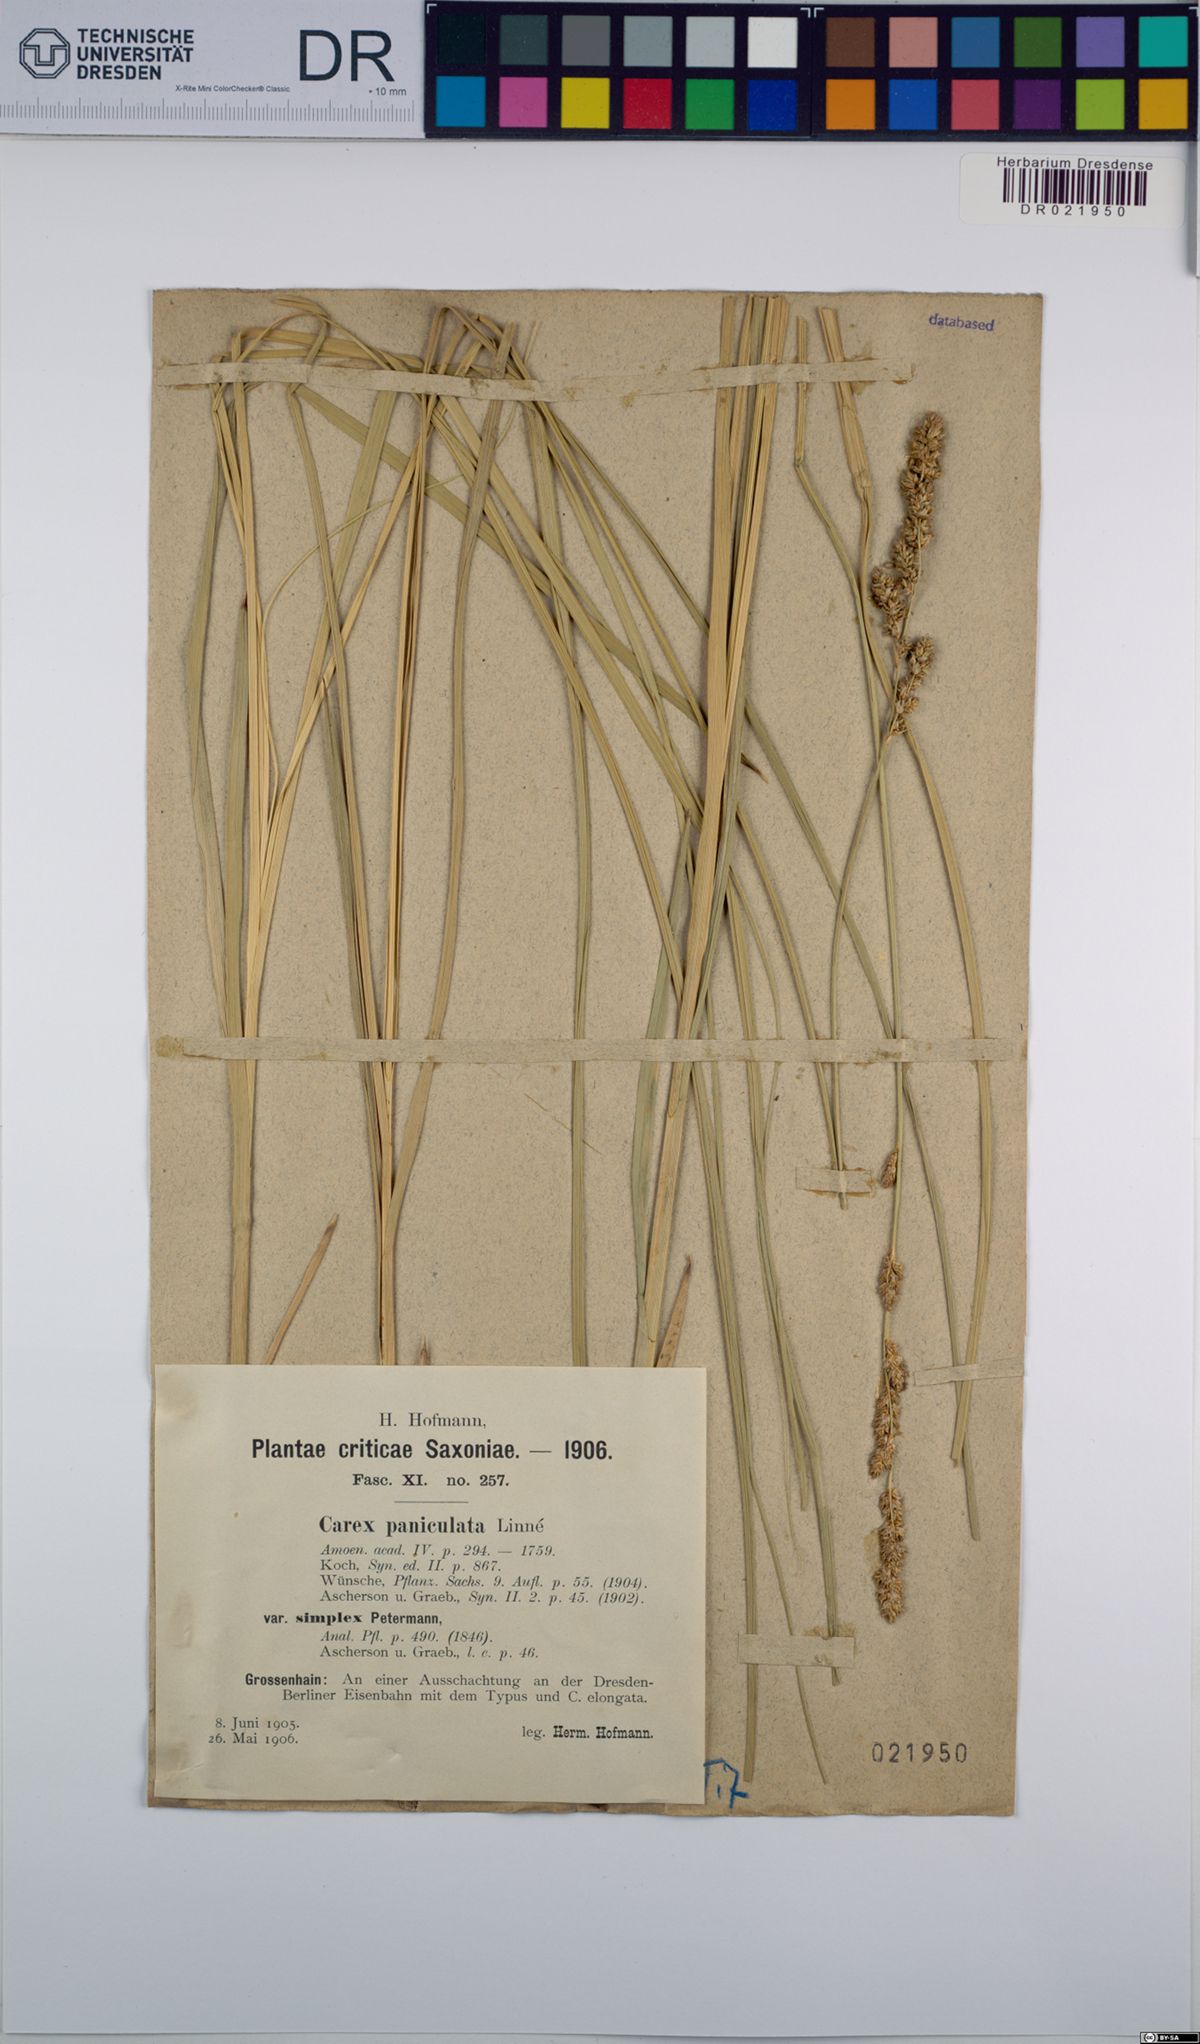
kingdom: Plantae
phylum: Tracheophyta
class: Liliopsida
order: Poales
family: Cyperaceae
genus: Carex
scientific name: Carex paniculata
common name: Greater tussock-sedge
